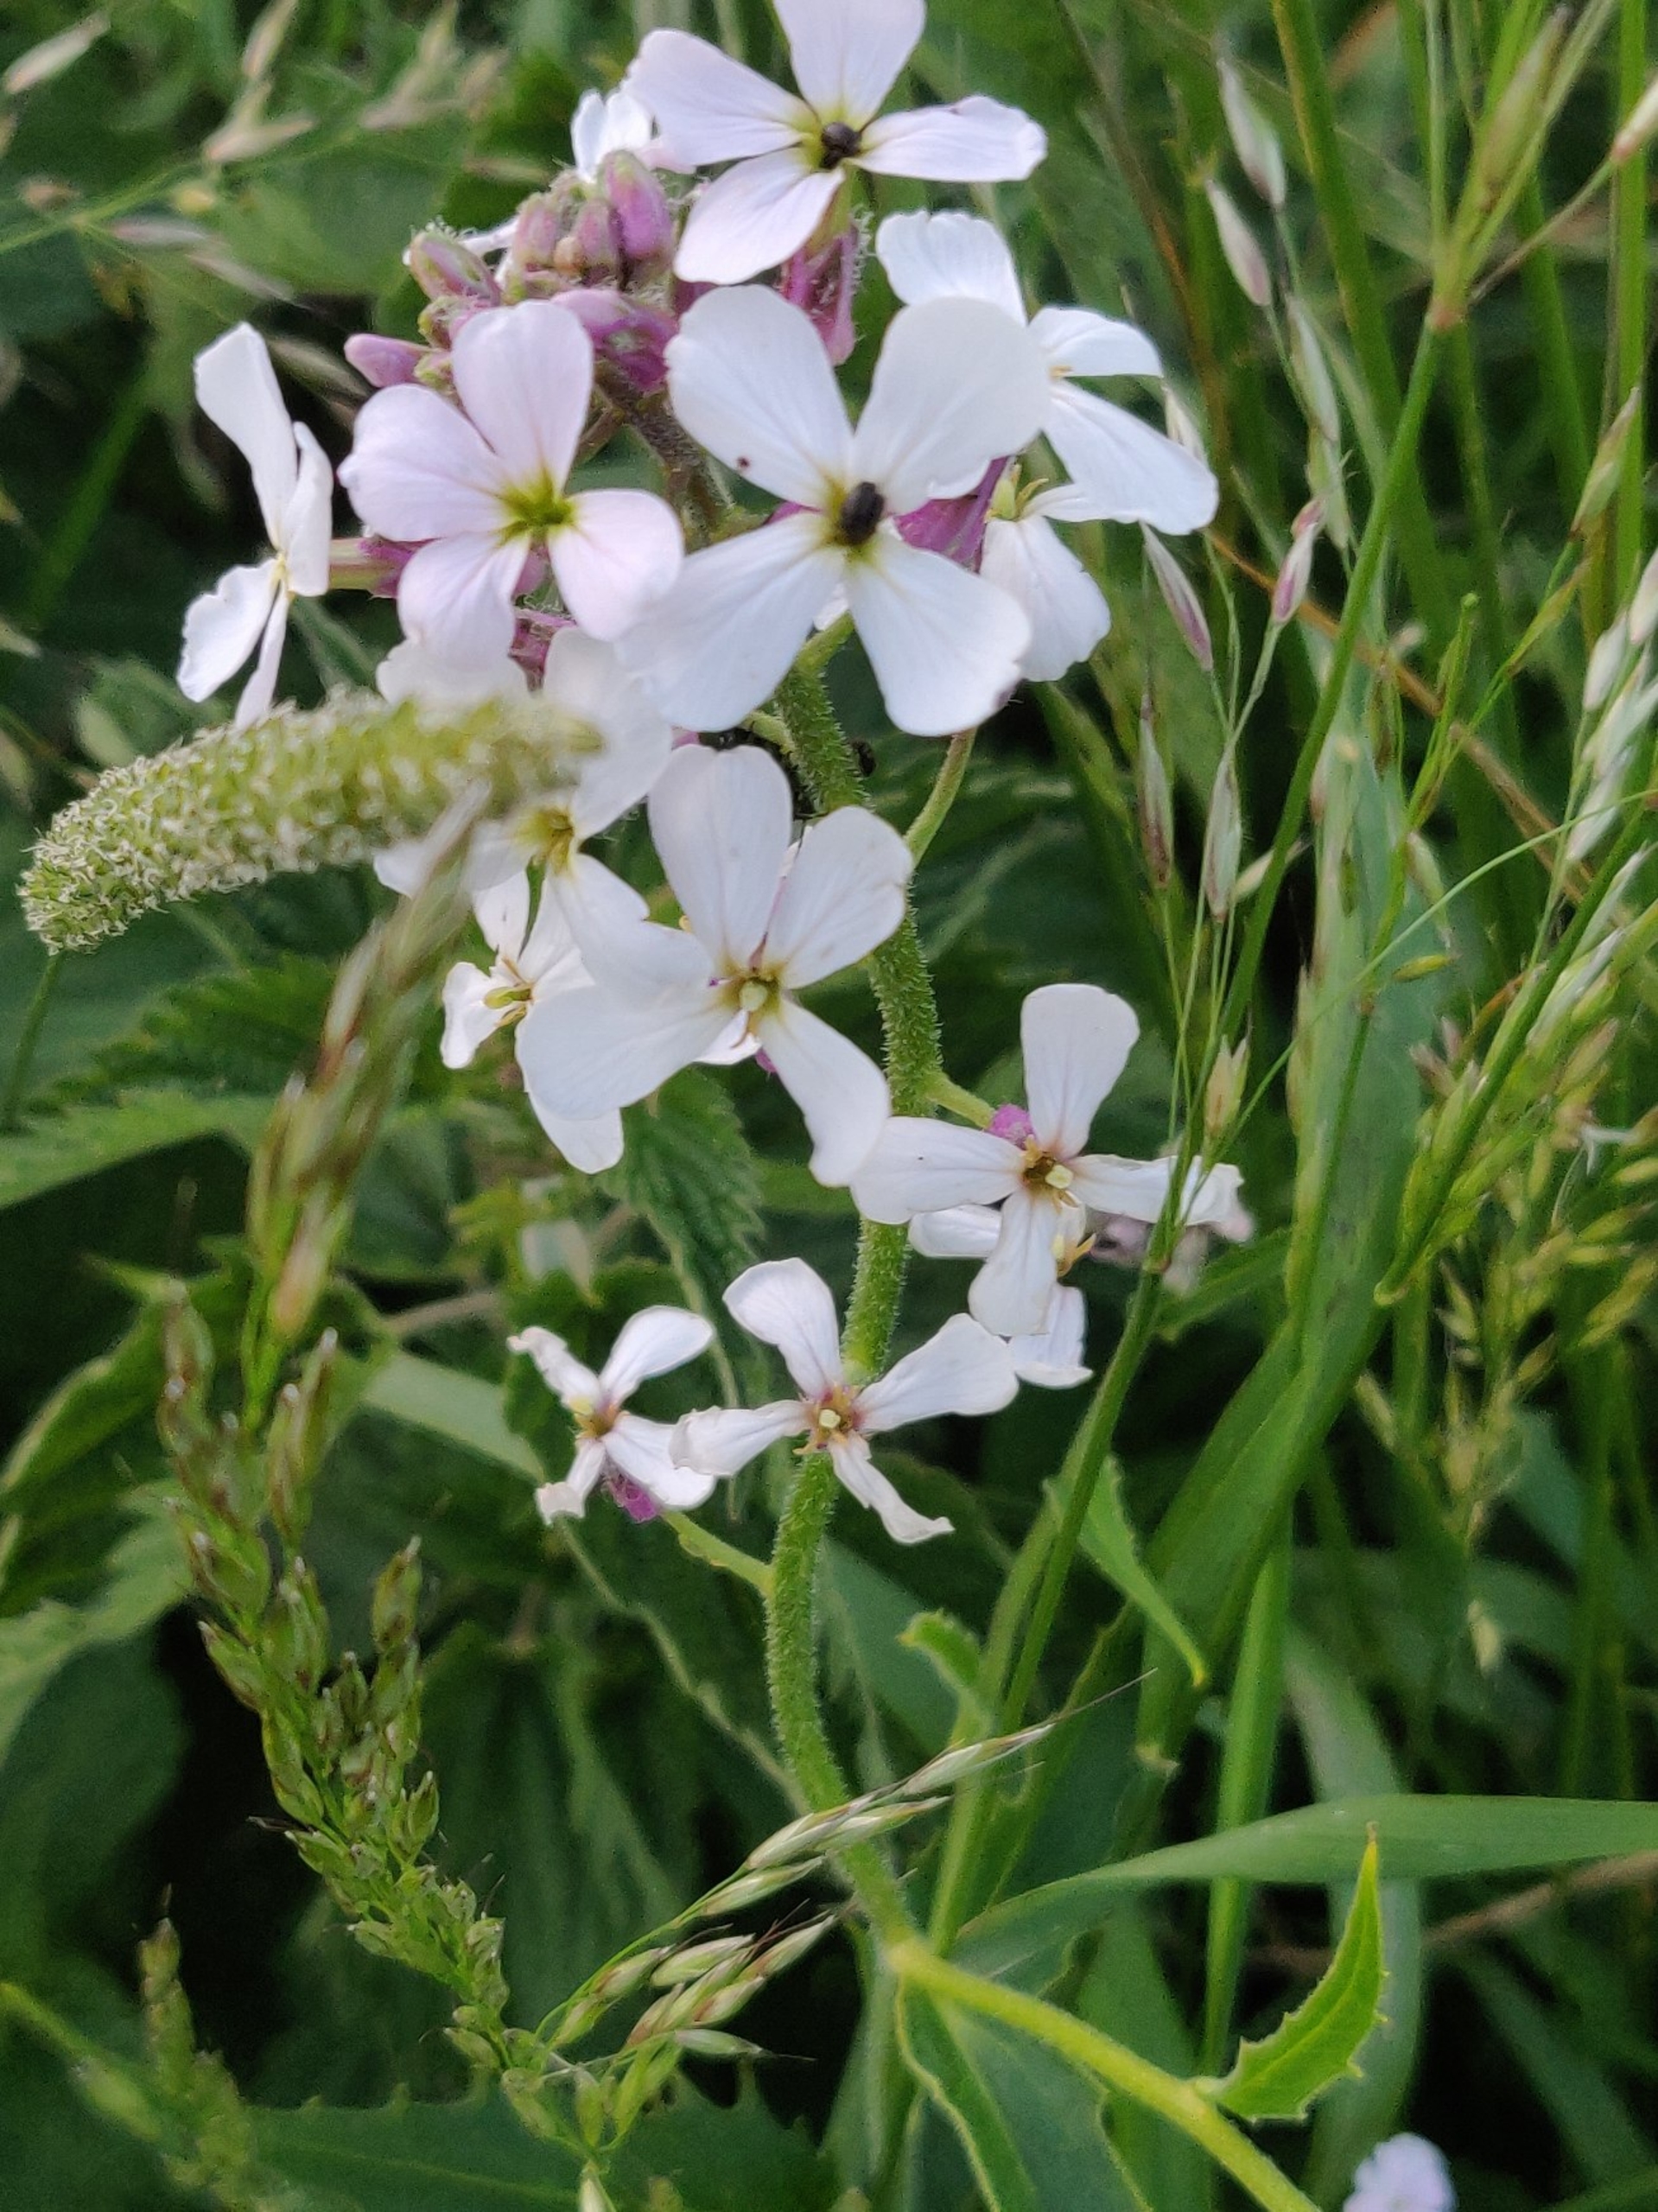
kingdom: Plantae
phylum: Tracheophyta
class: Magnoliopsida
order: Brassicales
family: Brassicaceae
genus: Hesperis
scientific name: Hesperis matronalis
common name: Aftenstjerne
